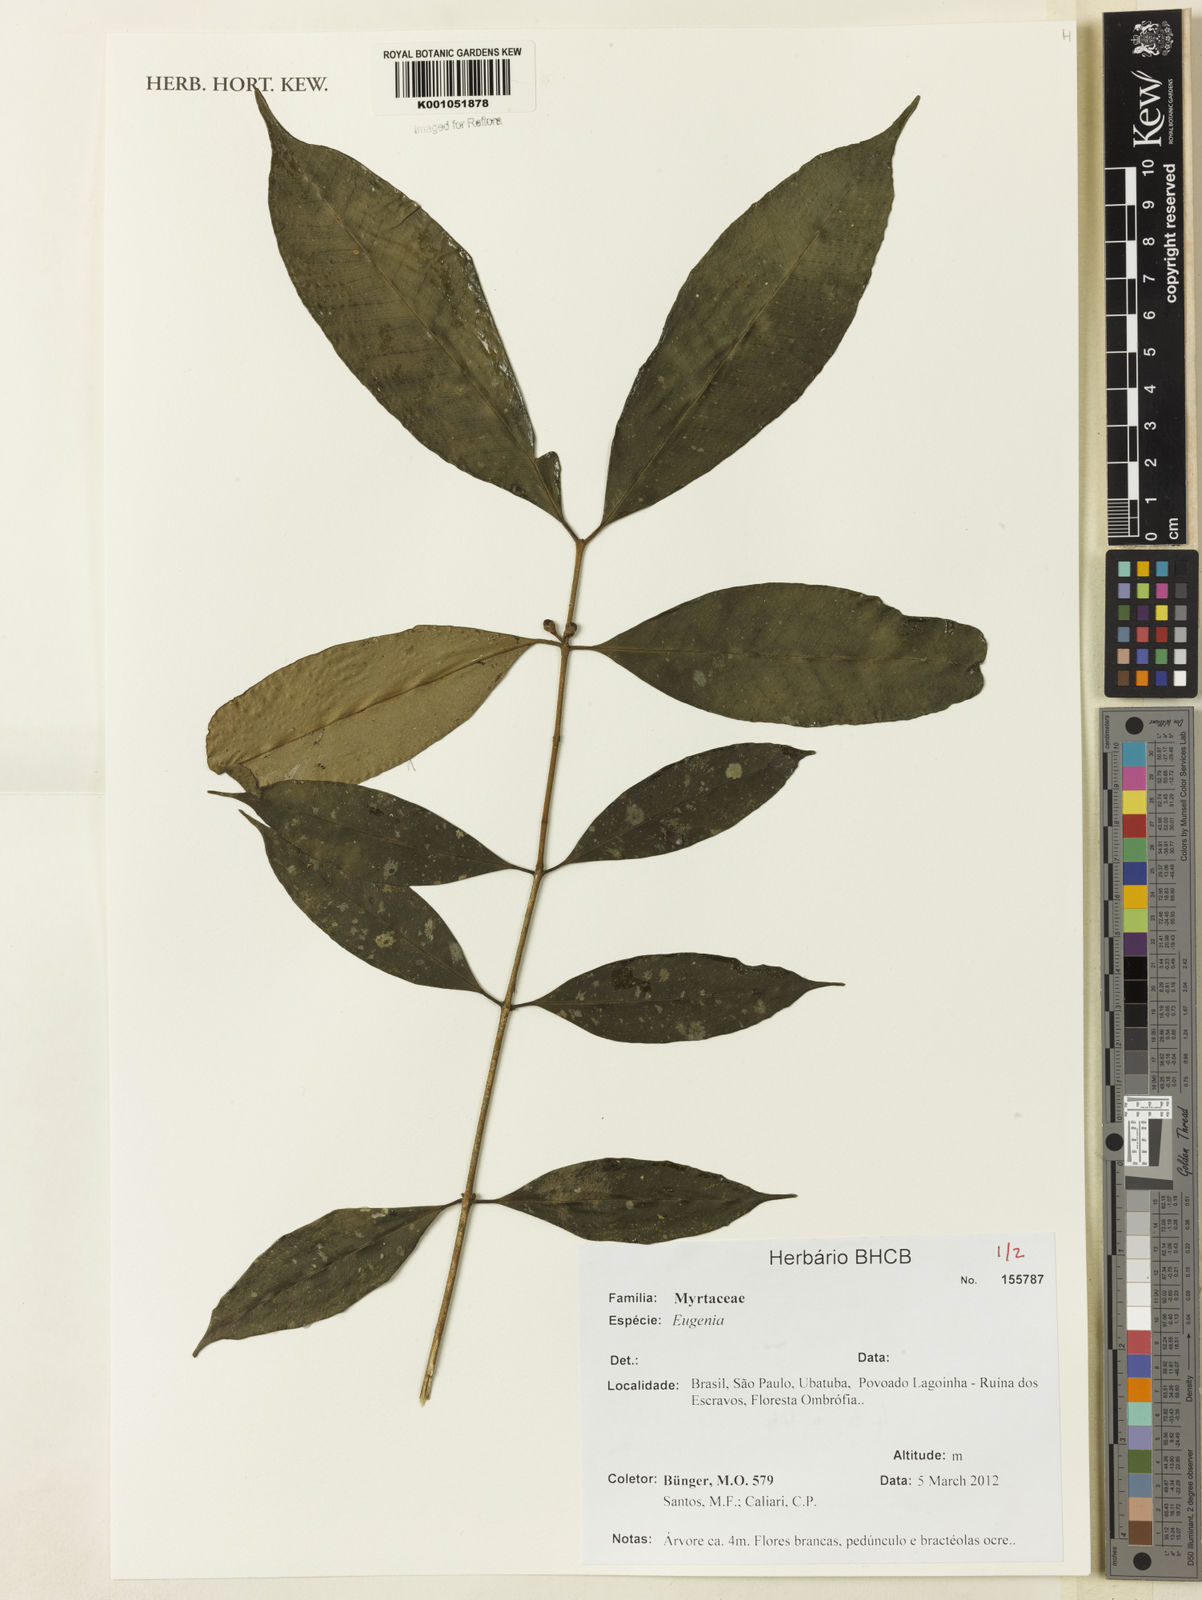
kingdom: Plantae
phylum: Tracheophyta
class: Magnoliopsida
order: Myrtales
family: Myrtaceae
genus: Eugenia
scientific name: Eugenia pisiformis
